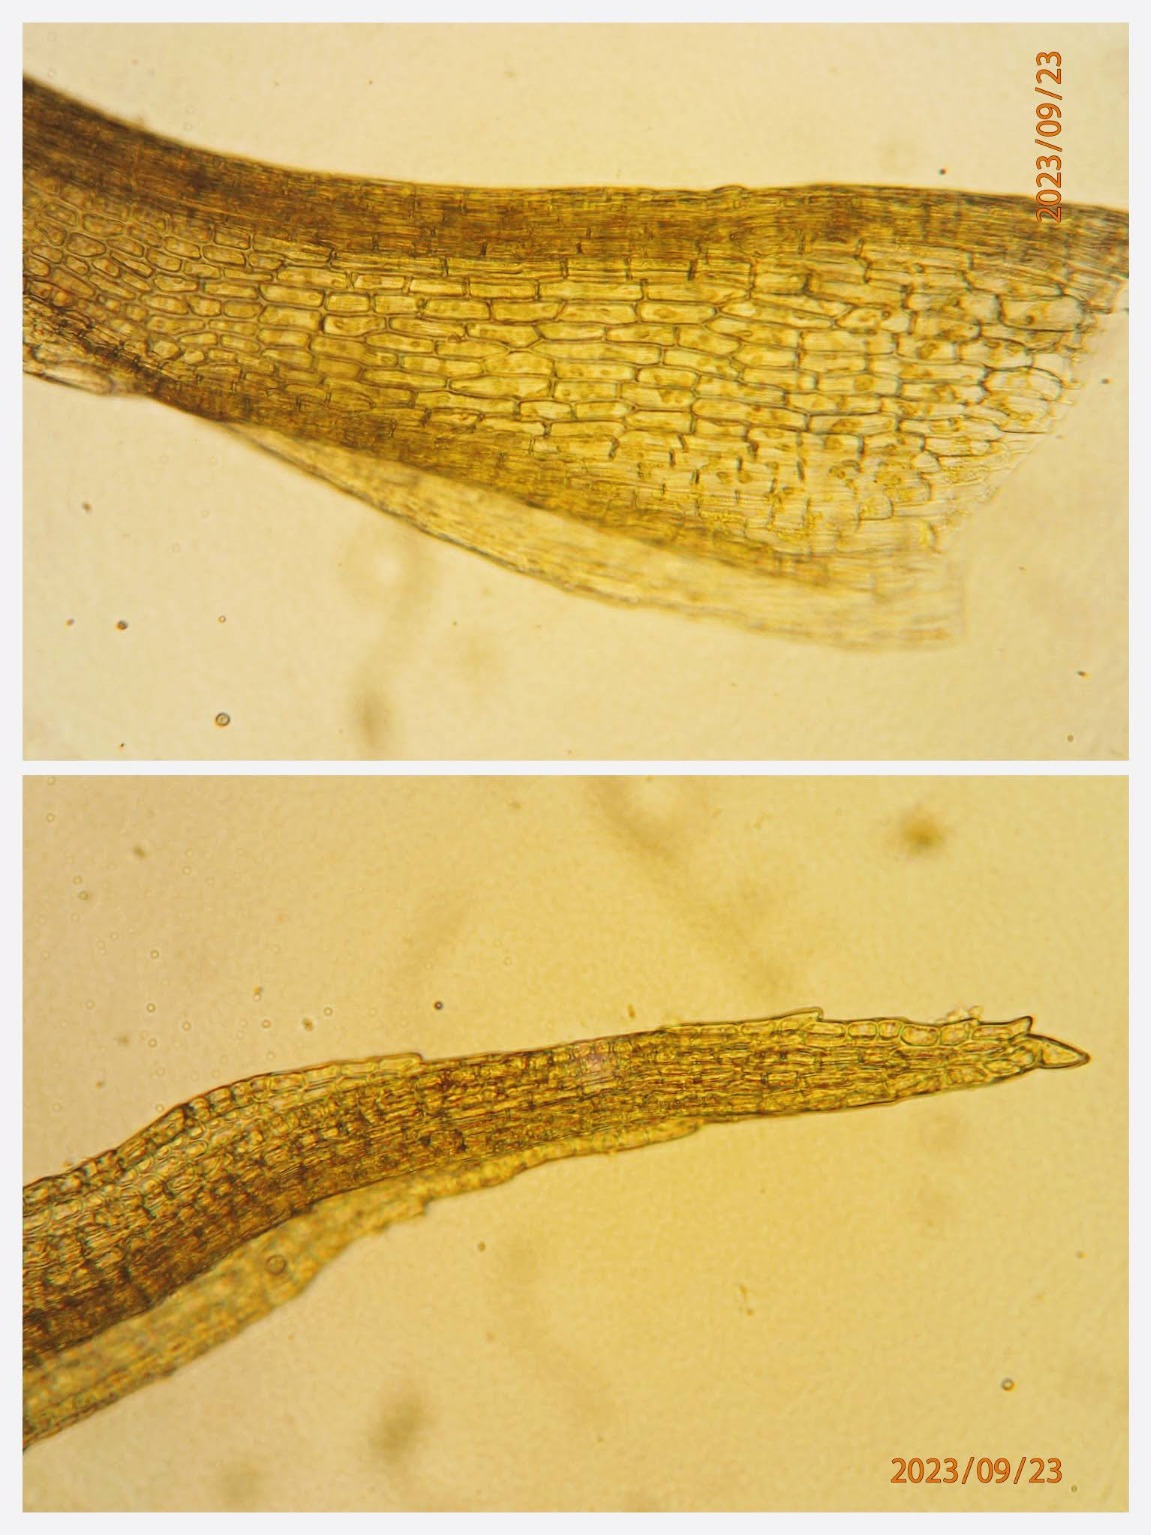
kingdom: Plantae
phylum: Bryophyta
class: Bryopsida
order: Dicranales
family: Ditrichaceae
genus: Ceratodon
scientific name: Ceratodon purpureus
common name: Rød horntand
